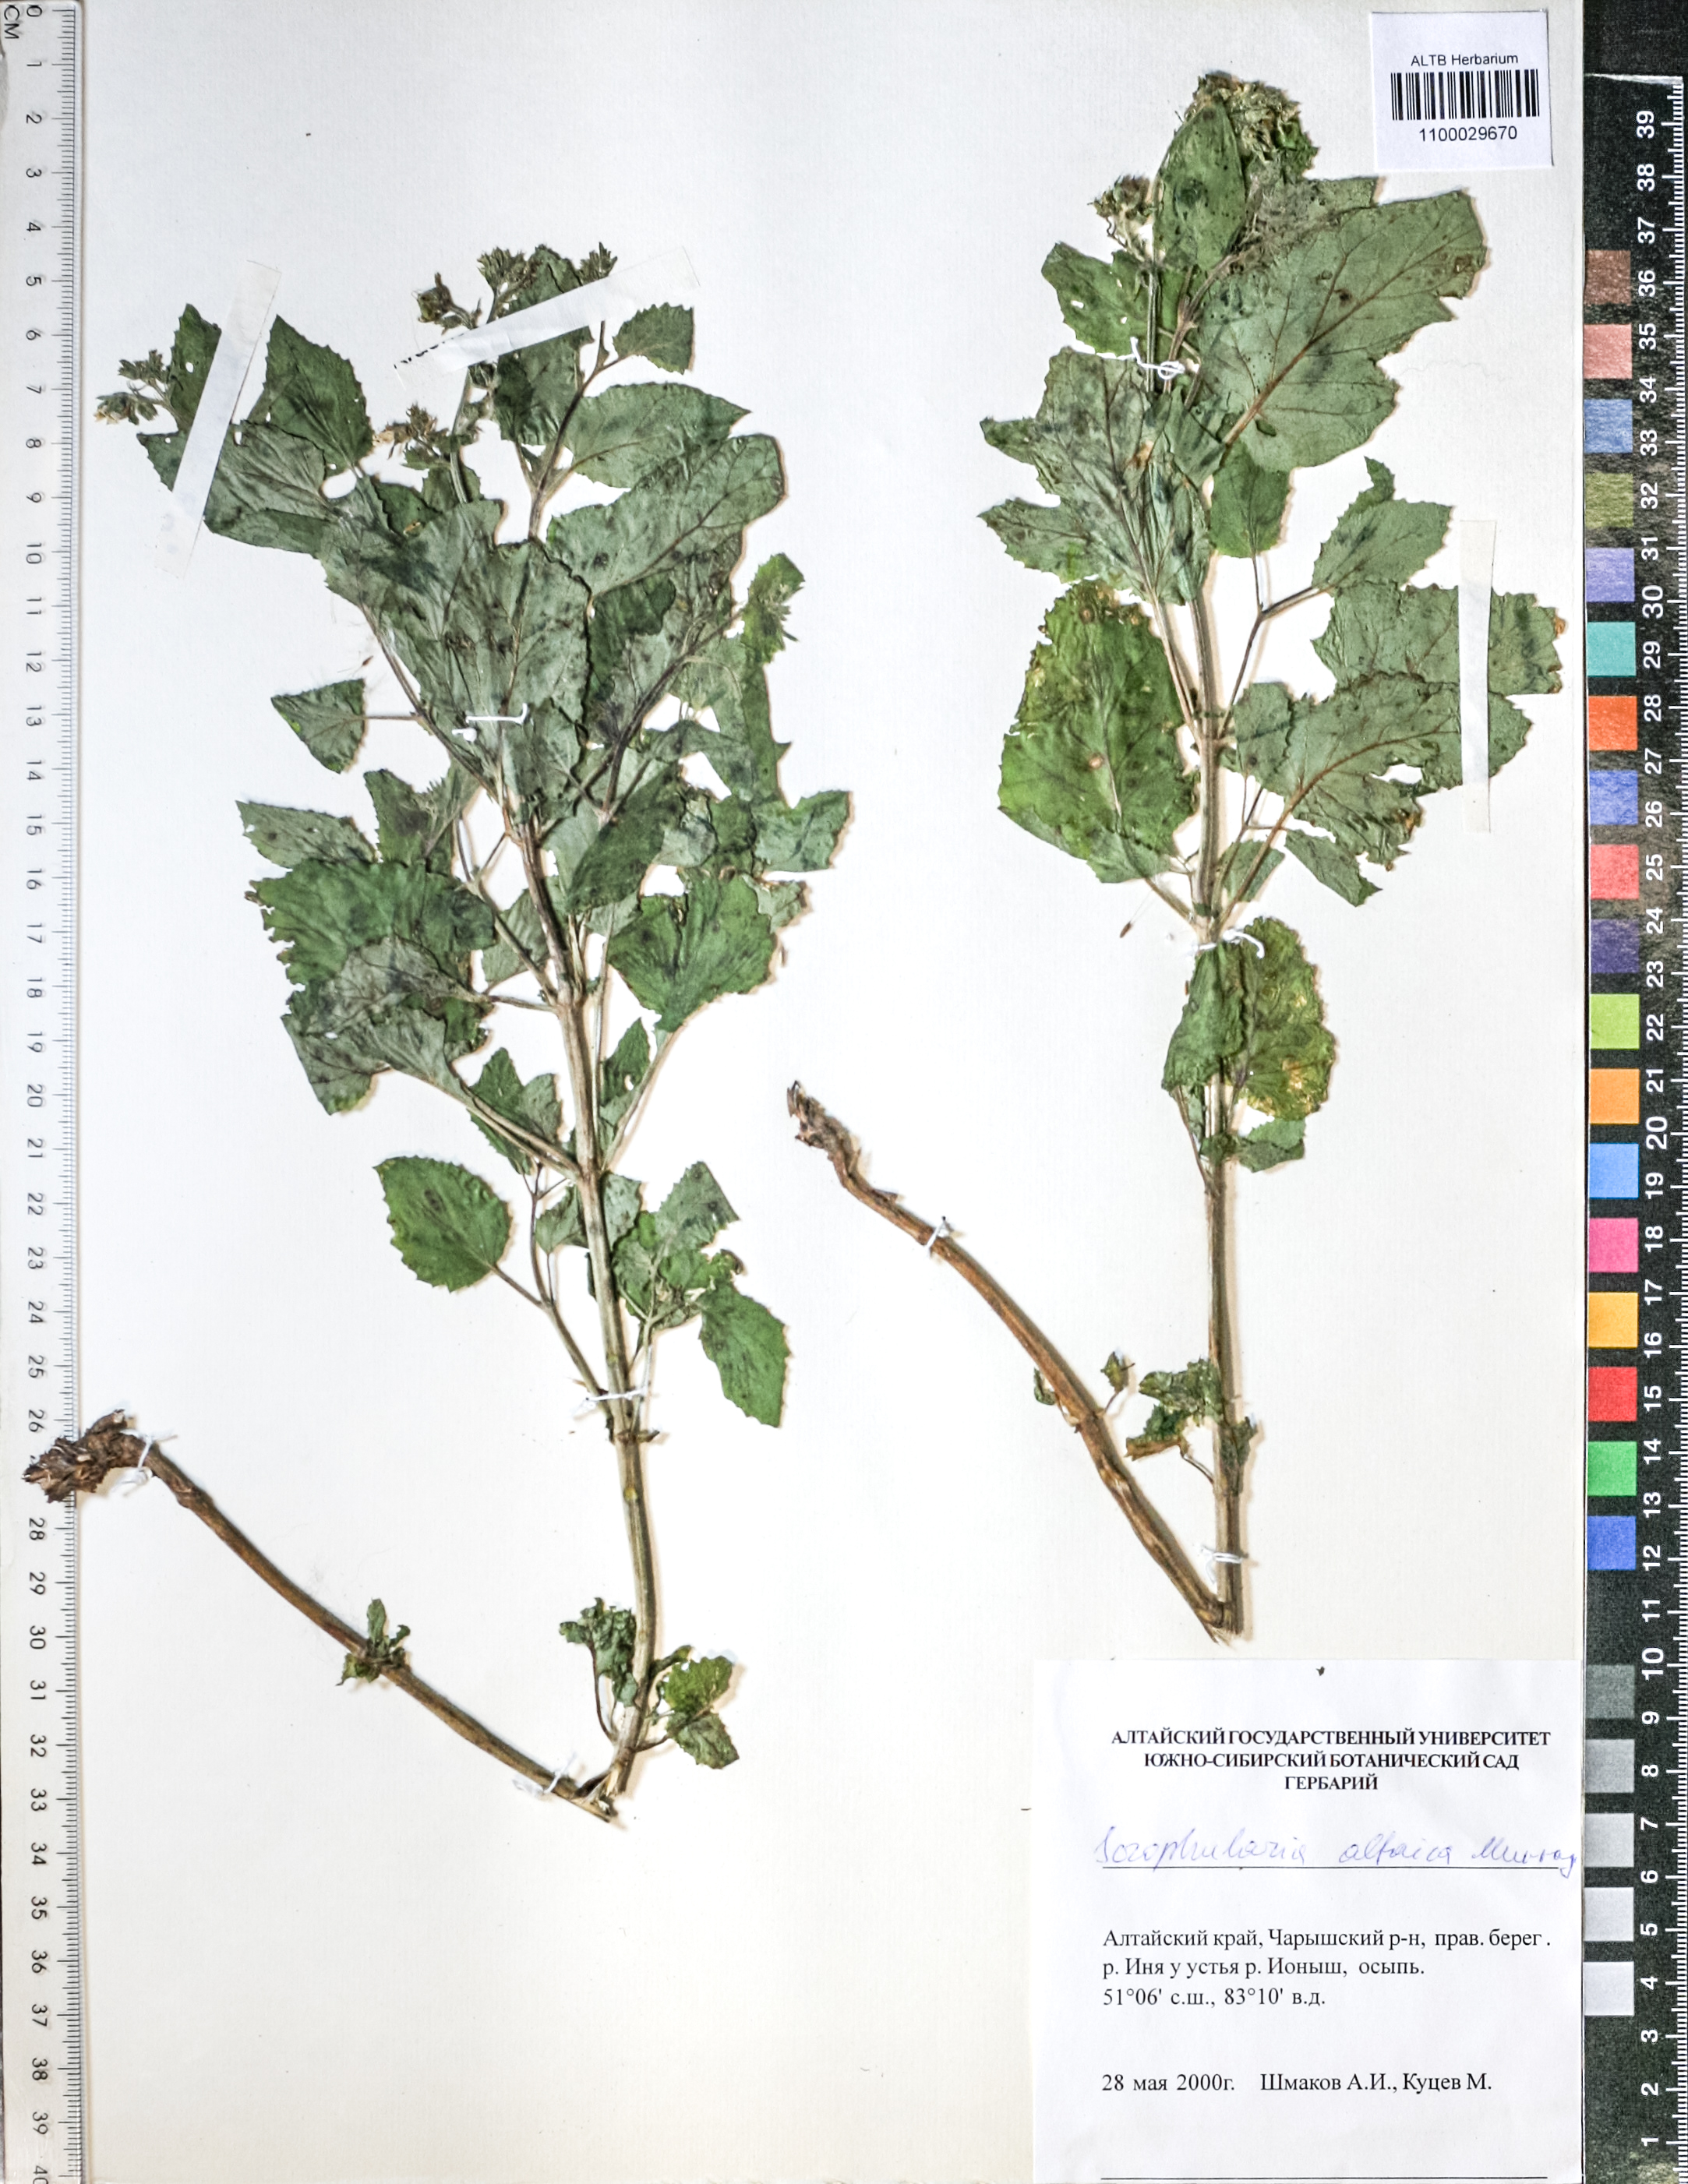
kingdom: Plantae
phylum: Tracheophyta
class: Magnoliopsida
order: Lamiales
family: Scrophulariaceae
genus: Scrophularia
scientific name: Scrophularia altaica
